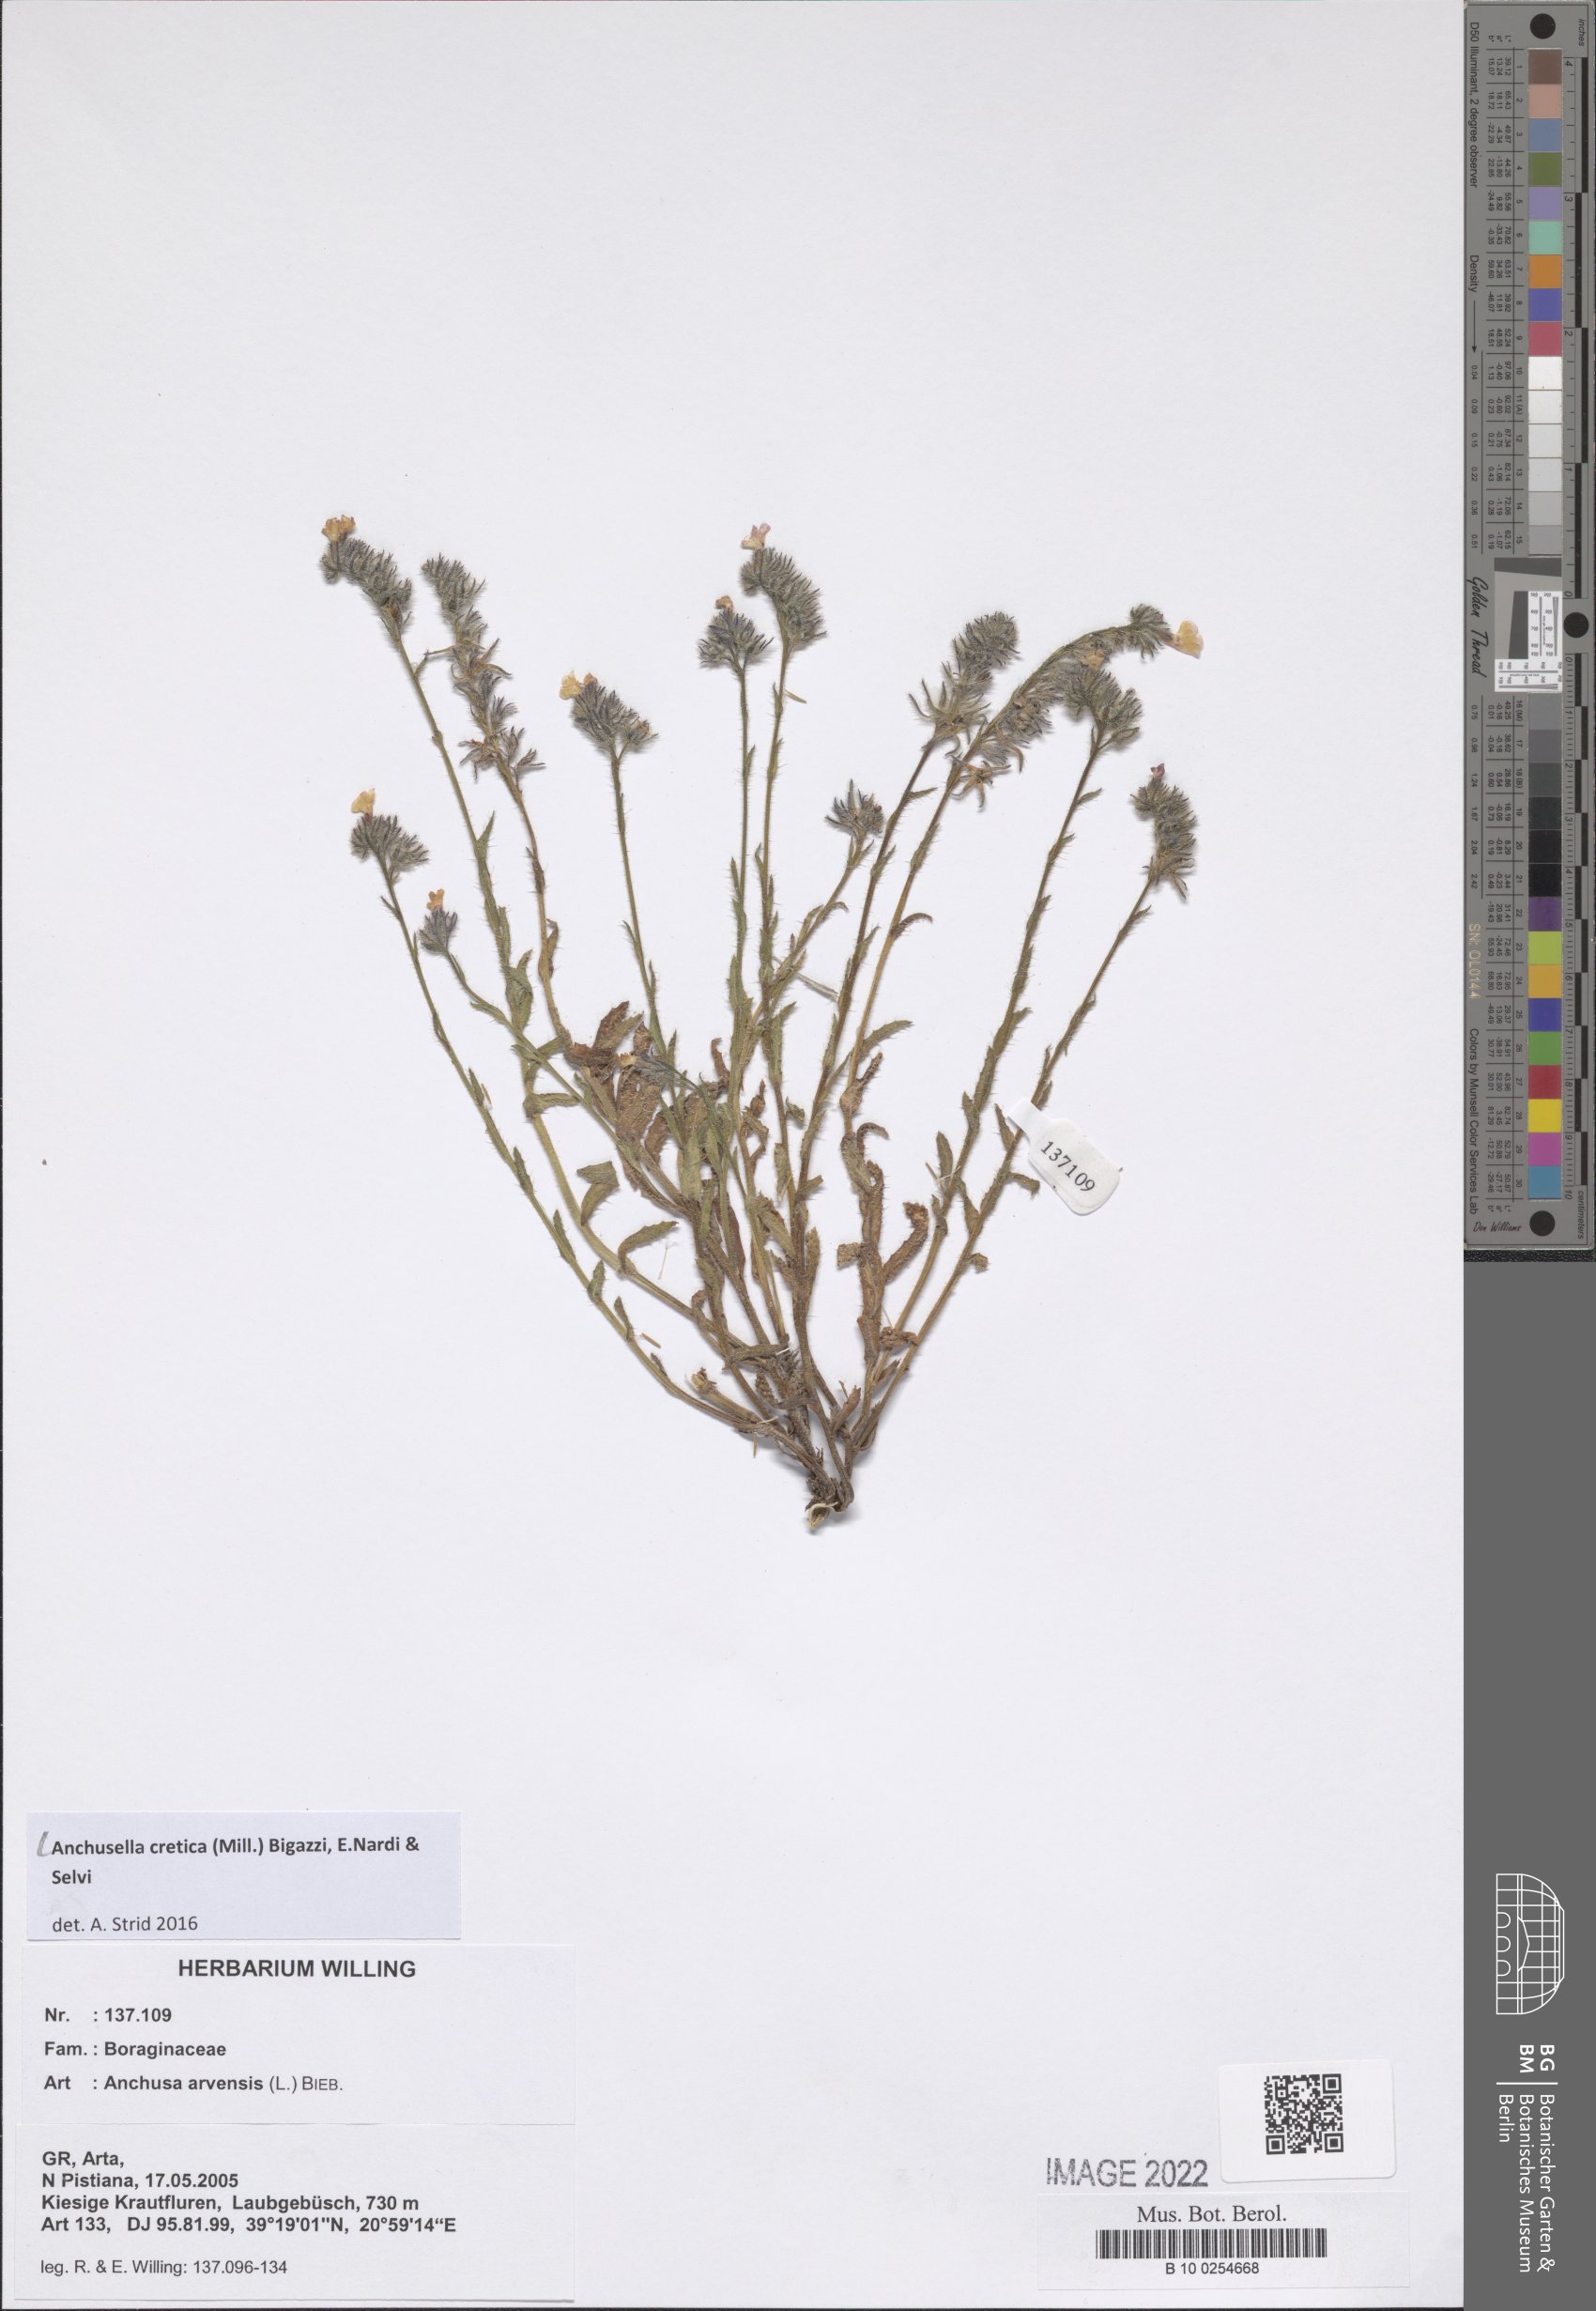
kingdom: Plantae
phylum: Tracheophyta
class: Magnoliopsida
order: Boraginales
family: Boraginaceae
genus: Anchusella
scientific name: Anchusella cretica
